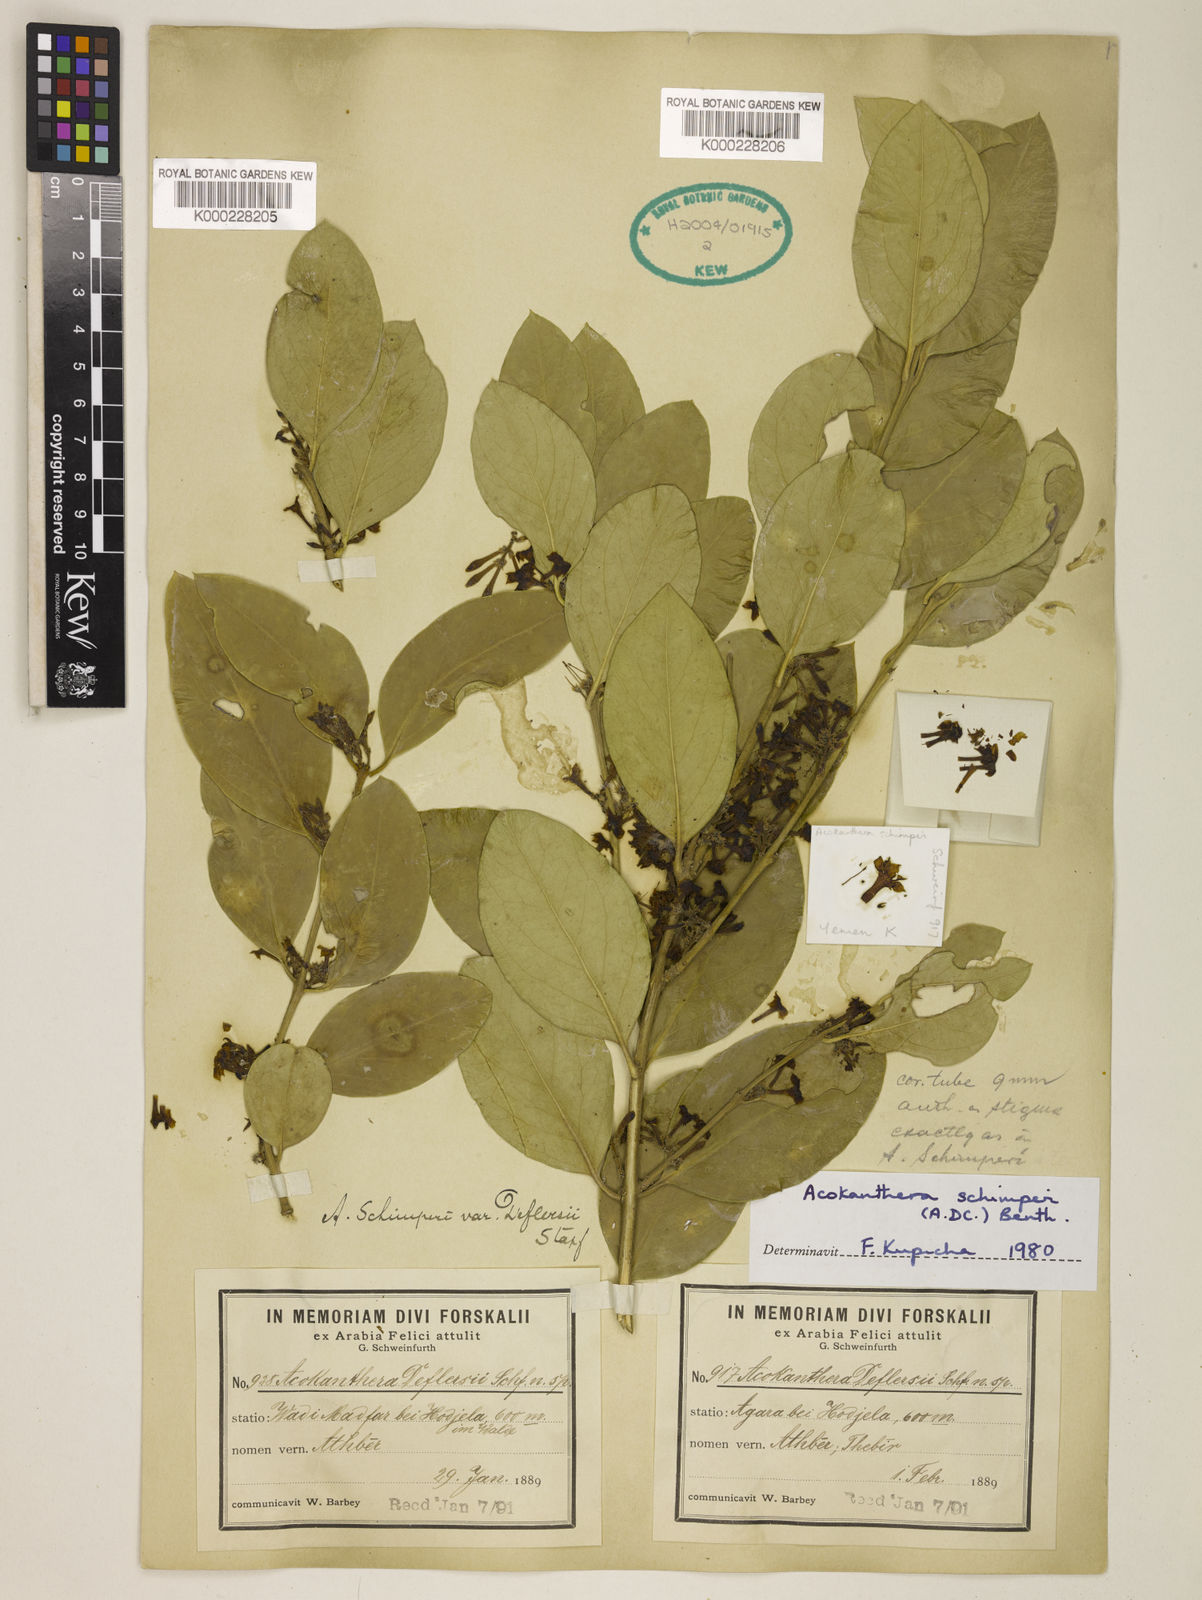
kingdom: Plantae
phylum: Tracheophyta
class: Magnoliopsida
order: Gentianales
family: Apocynaceae
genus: Acokanthera
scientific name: Acokanthera
